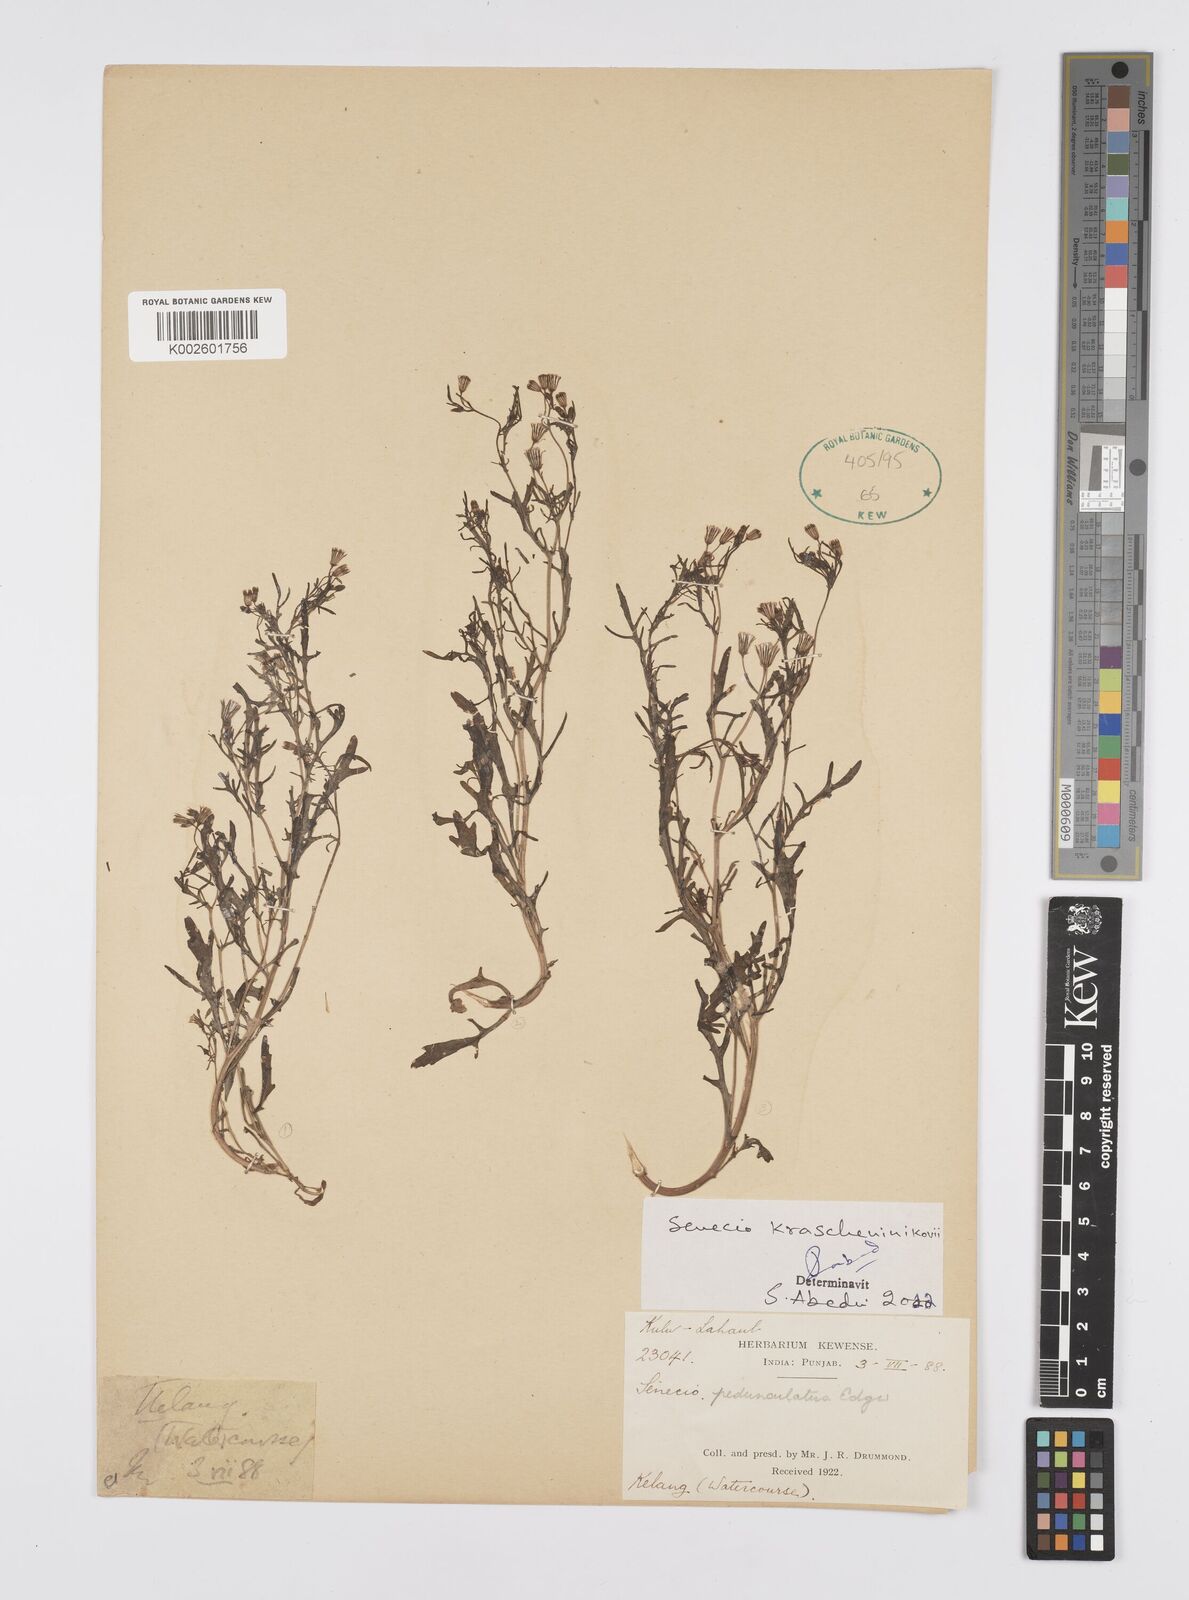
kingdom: Plantae
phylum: Tracheophyta
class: Magnoliopsida
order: Asterales
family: Asteraceae
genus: Senecio
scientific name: Senecio krascheninnikovii
